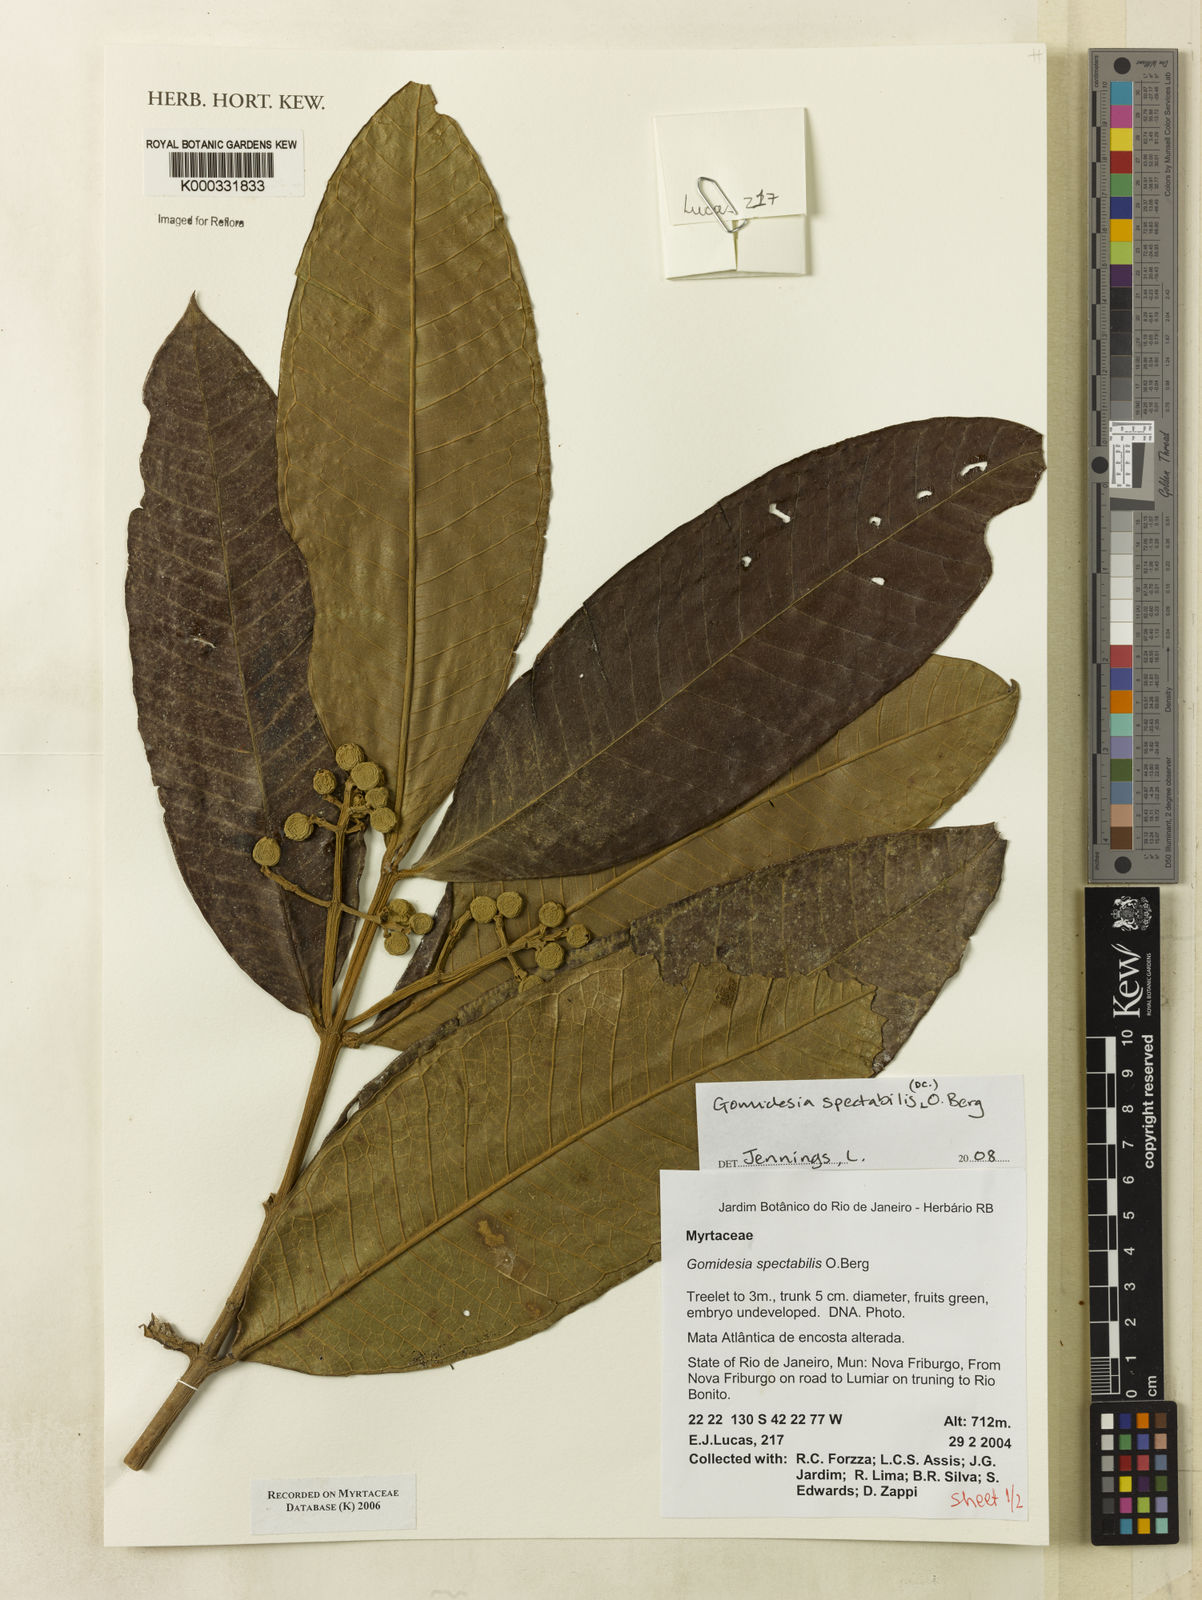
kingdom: Plantae
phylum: Tracheophyta
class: Magnoliopsida
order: Myrtales
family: Myrtaceae
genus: Myrcia
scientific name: Myrcia spectabilis
